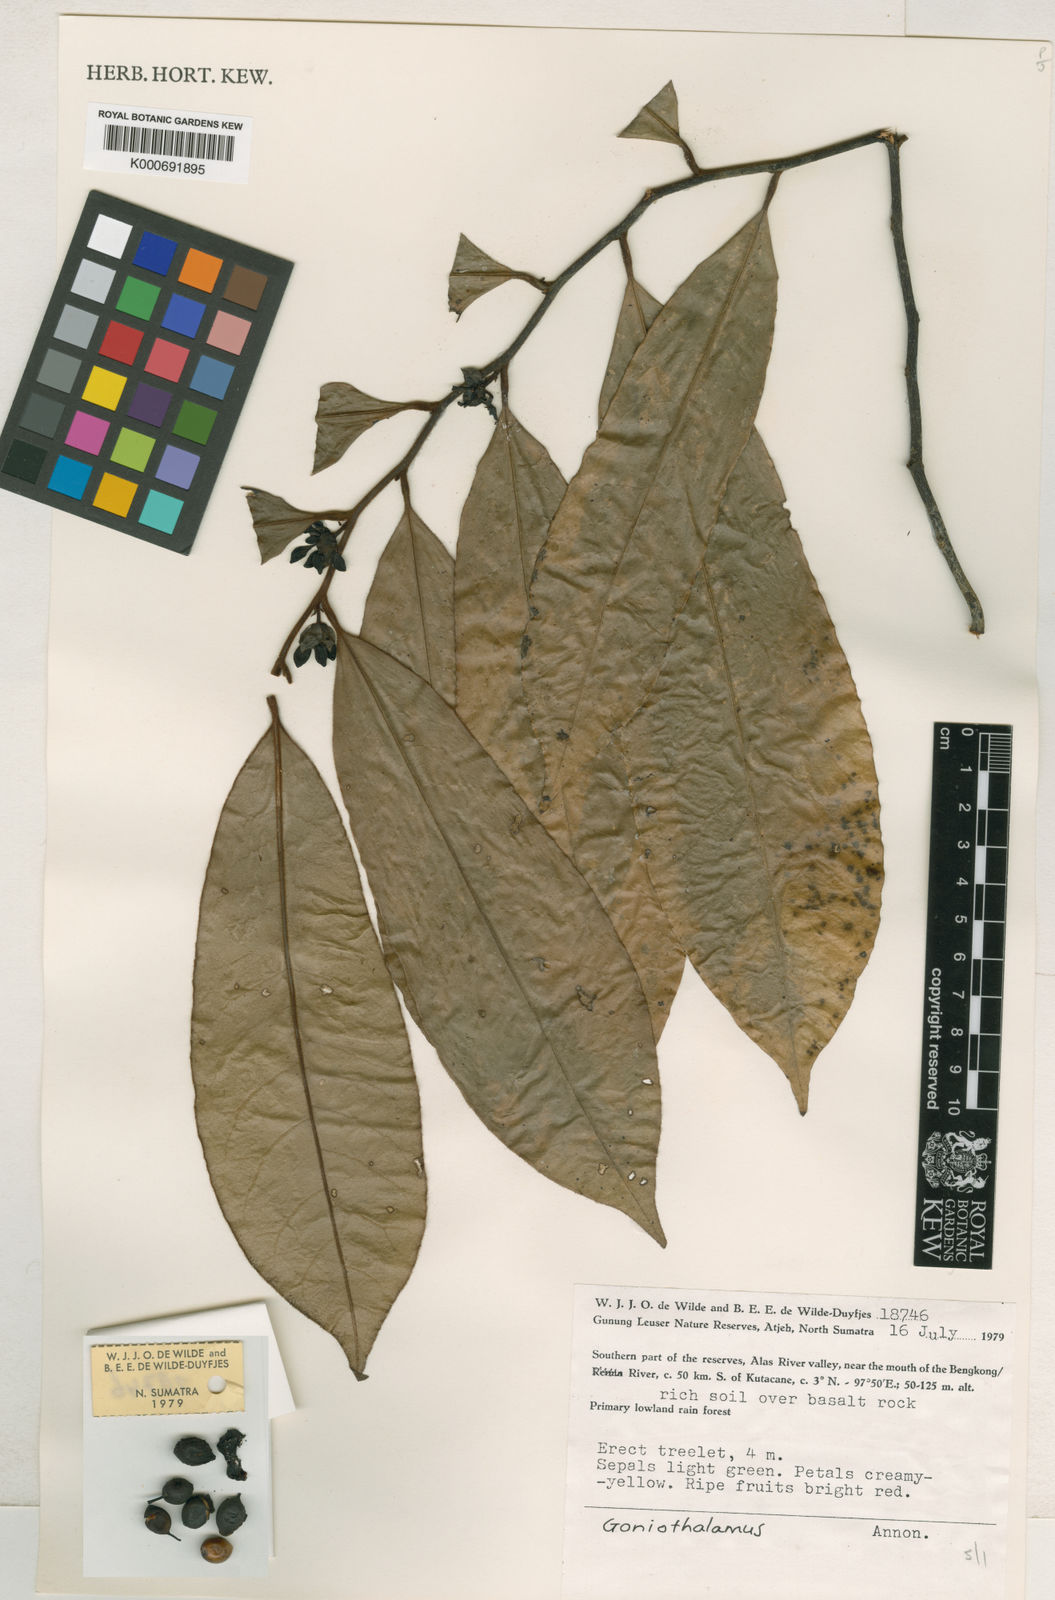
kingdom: Plantae
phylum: Tracheophyta
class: Magnoliopsida
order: Magnoliales
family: Annonaceae
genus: Goniothalamus
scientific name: Goniothalamus miquelianus
